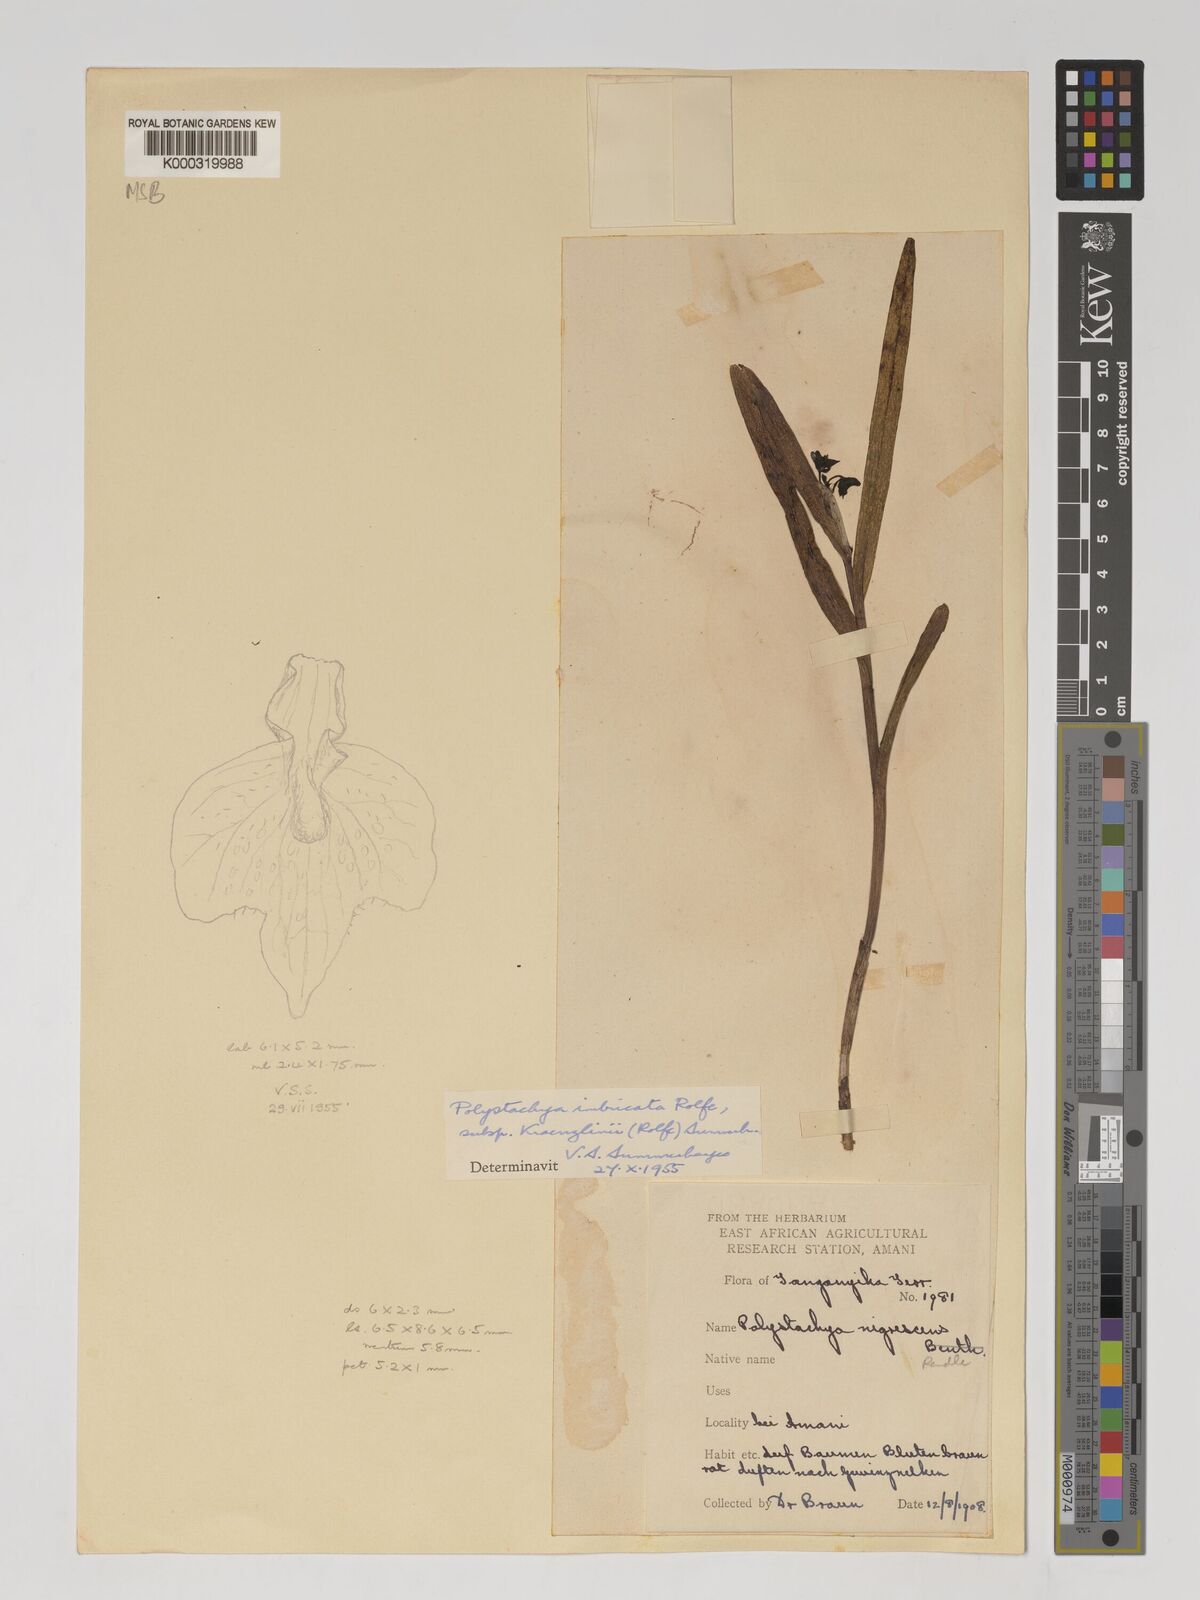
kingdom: Plantae
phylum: Tracheophyta
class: Liliopsida
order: Asparagales
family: Orchidaceae
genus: Polystachya
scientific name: Polystachya albescens
